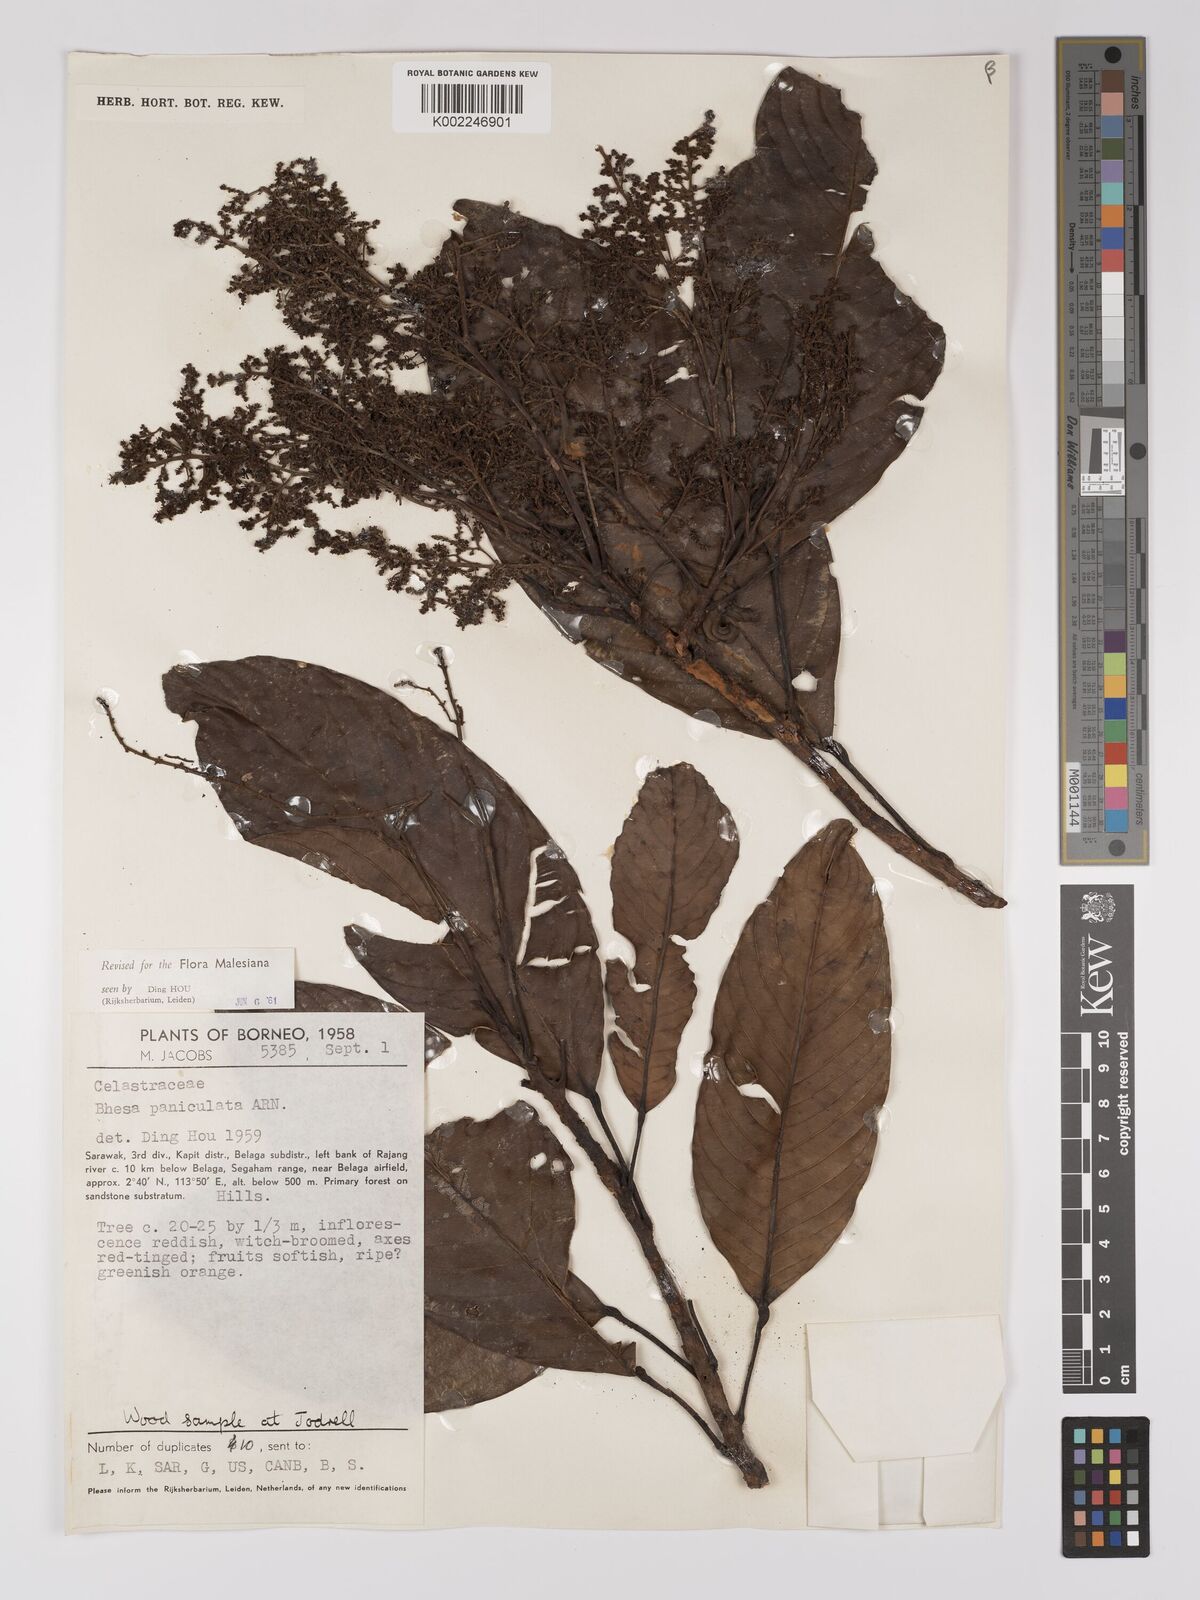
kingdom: Plantae
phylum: Tracheophyta
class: Magnoliopsida
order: Malpighiales
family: Centroplacaceae
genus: Bhesa
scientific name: Bhesa paniculata
